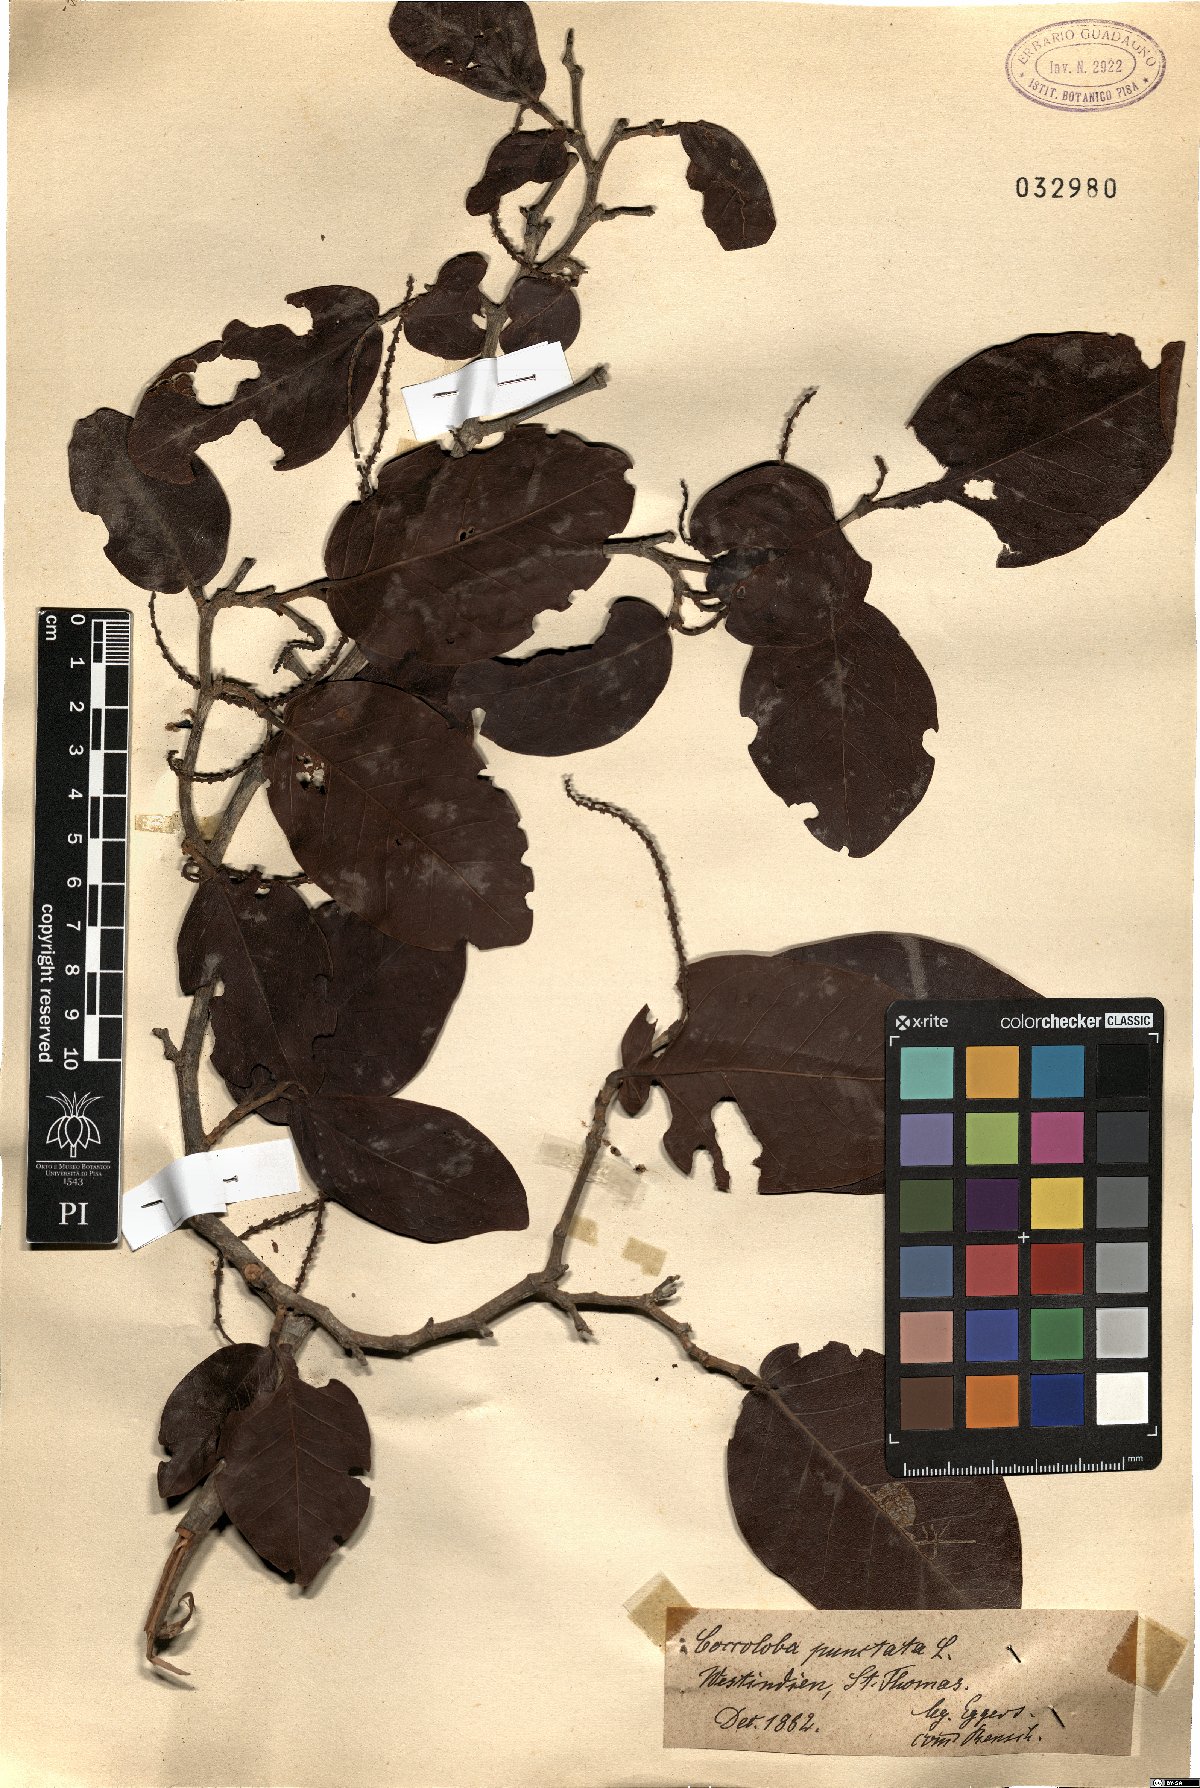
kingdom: Plantae
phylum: Tracheophyta
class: Magnoliopsida
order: Caryophyllales
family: Polygonaceae
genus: Coccoloba
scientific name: Coccoloba
